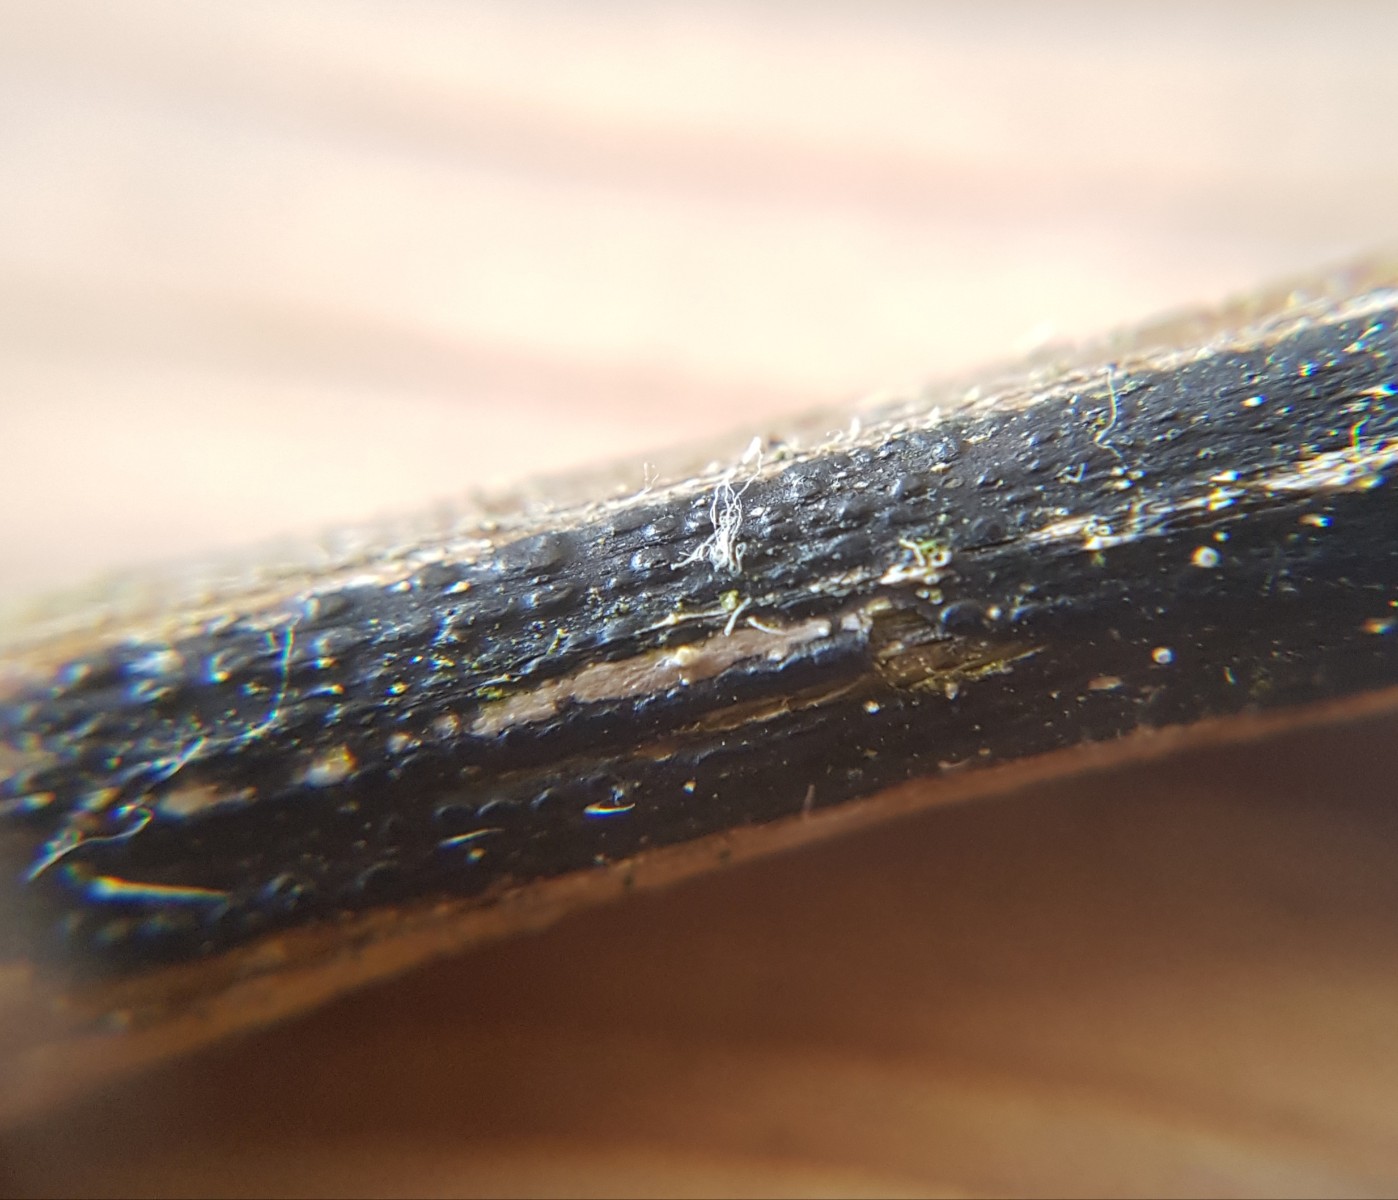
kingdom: Fungi
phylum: Ascomycota
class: Sordariomycetes
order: Diaporthales
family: Diaporthaceae
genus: Diaporthopsis
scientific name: Diaporthopsis urticae
